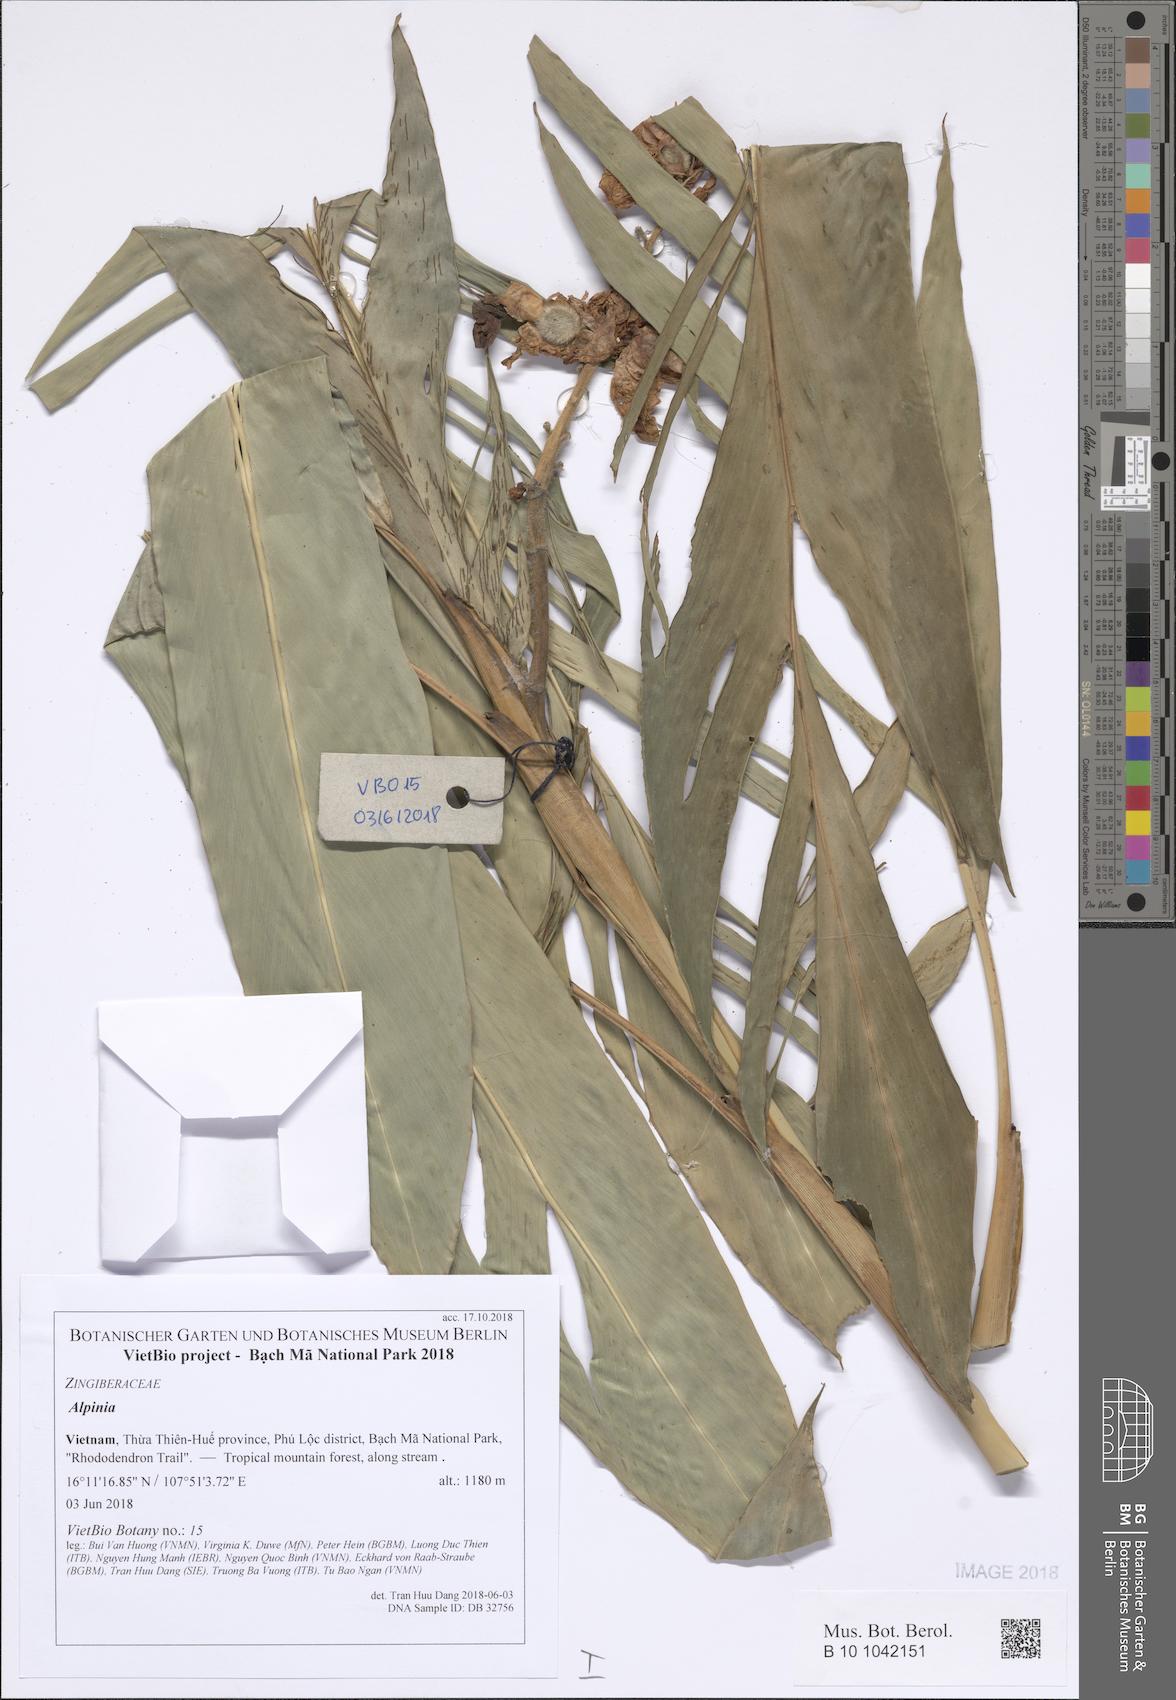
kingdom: Plantae
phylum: Tracheophyta
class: Liliopsida
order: Zingiberales
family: Zingiberaceae
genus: Alpinia
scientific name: Alpinia
